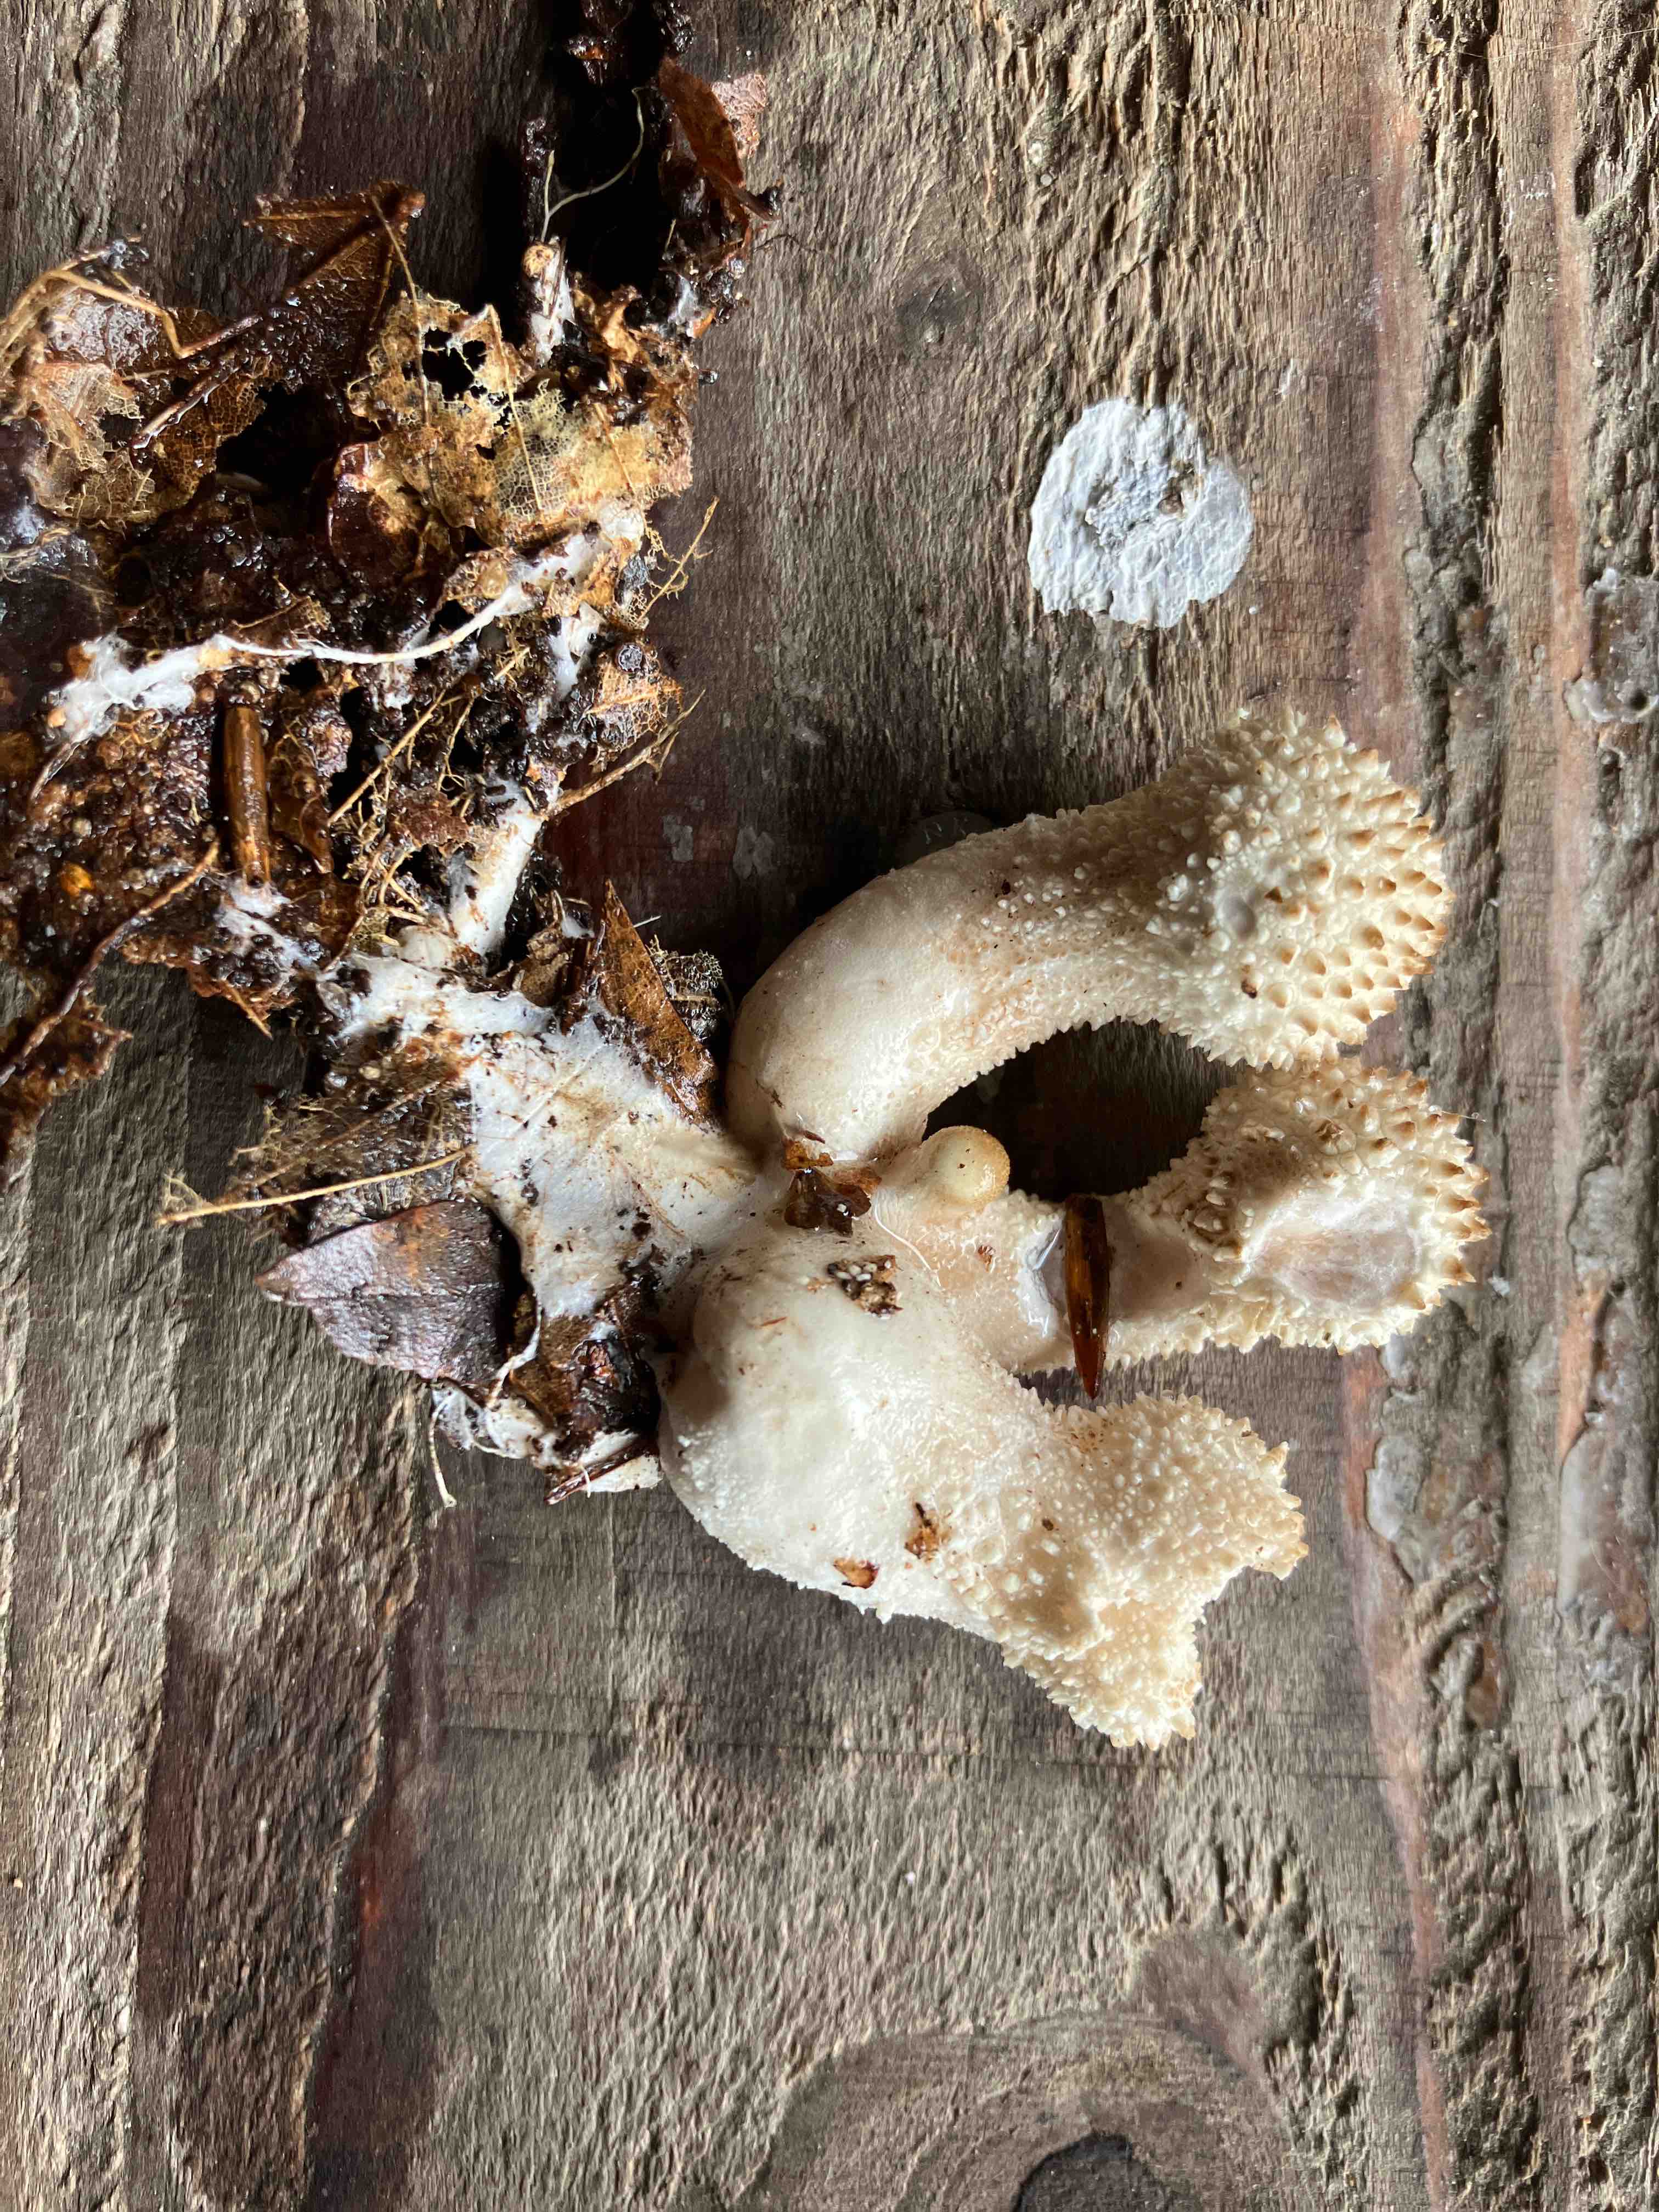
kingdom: Fungi
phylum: Basidiomycota
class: Agaricomycetes
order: Agaricales
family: Lycoperdaceae
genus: Lycoperdon
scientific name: Lycoperdon perlatum
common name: krystal-støvbold
